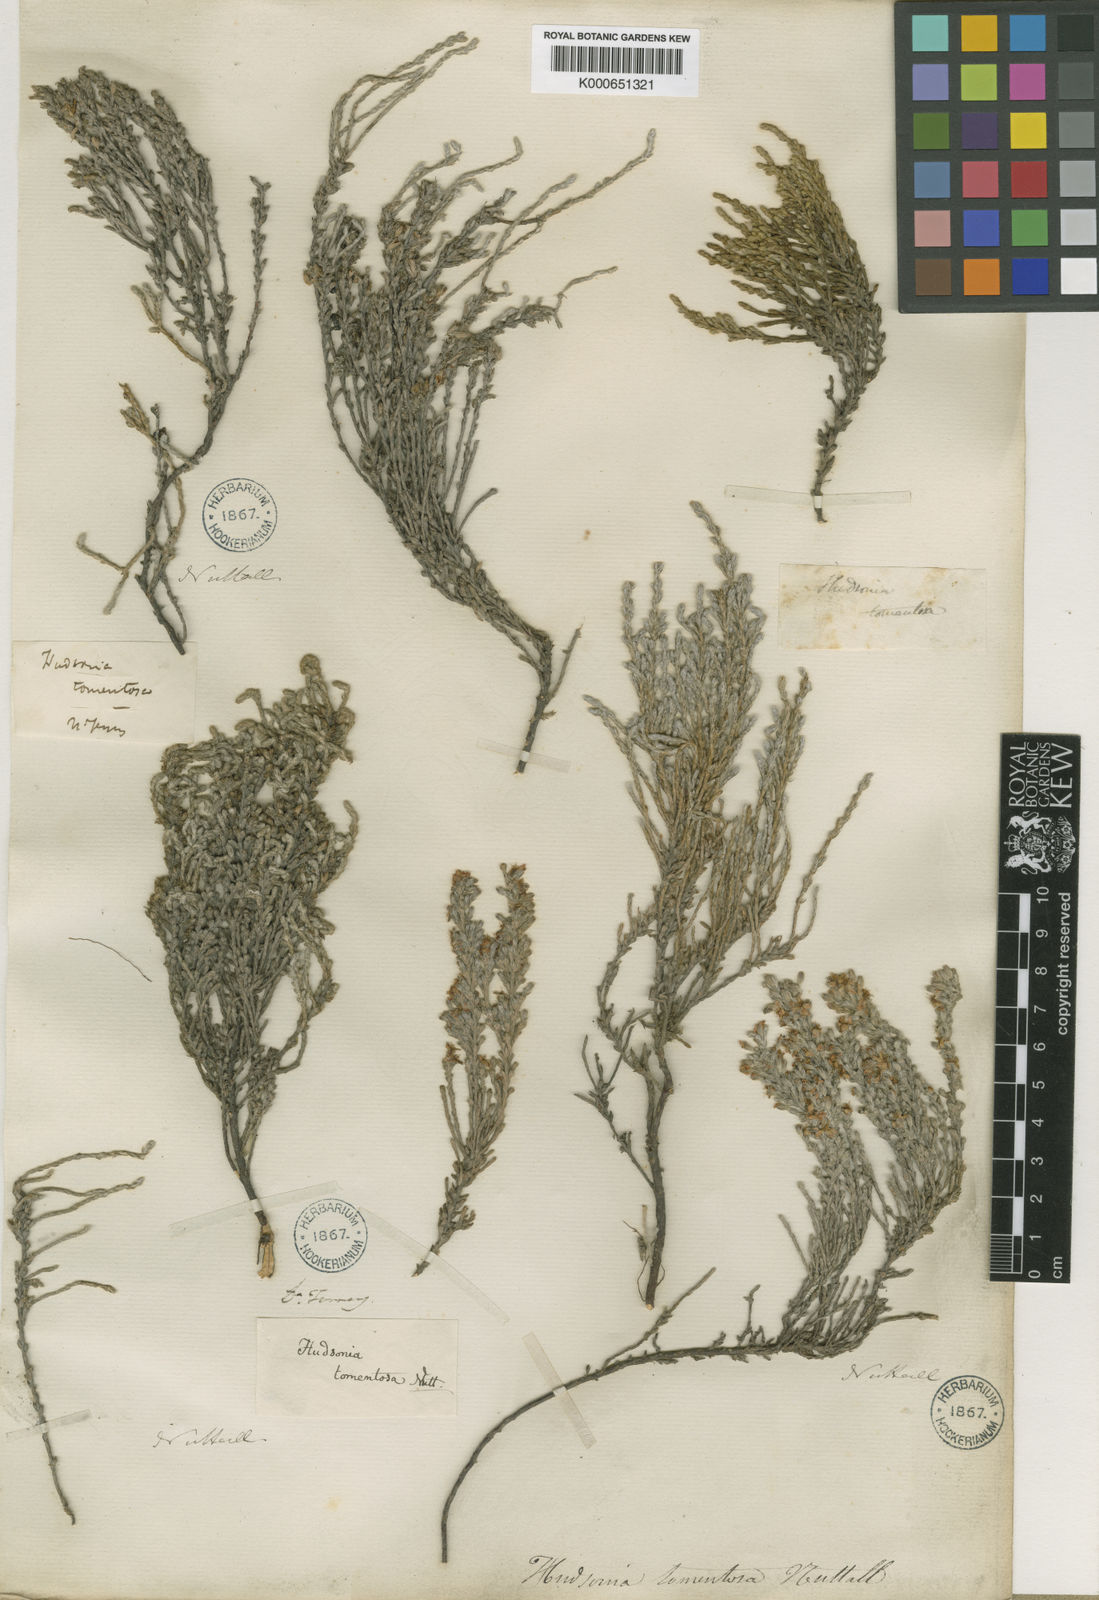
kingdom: Plantae
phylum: Tracheophyta
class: Magnoliopsida
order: Malvales
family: Cistaceae
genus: Hudsonia
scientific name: Hudsonia tomentosa
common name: Beach-heath
